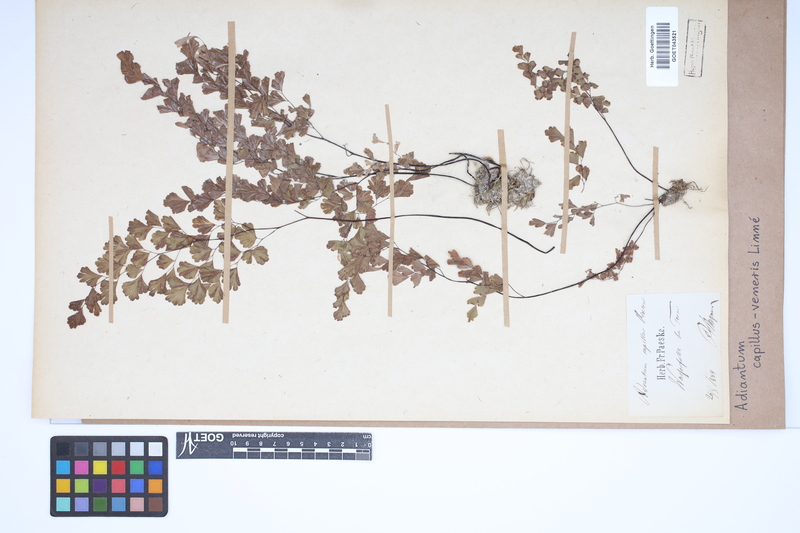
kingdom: Plantae
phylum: Tracheophyta
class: Polypodiopsida
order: Polypodiales
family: Pteridaceae
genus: Adiantum
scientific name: Adiantum capillus-veneris
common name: Maidenhair fern
